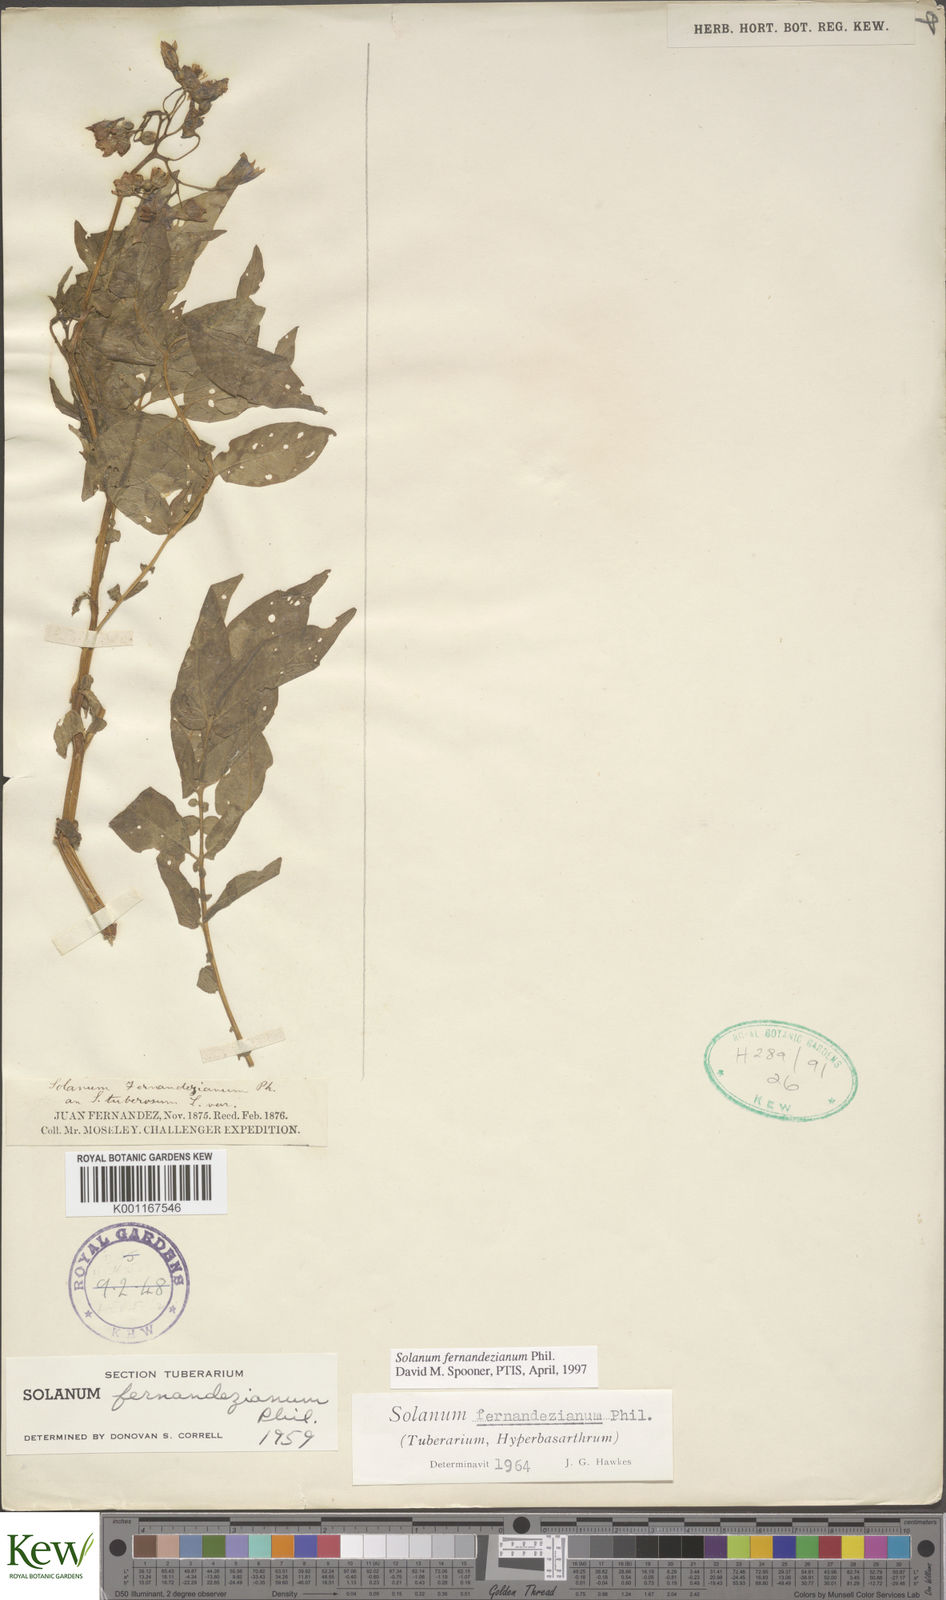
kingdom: Plantae
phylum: Tracheophyta
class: Magnoliopsida
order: Solanales
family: Solanaceae
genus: Solanum
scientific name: Solanum fernandezianum
